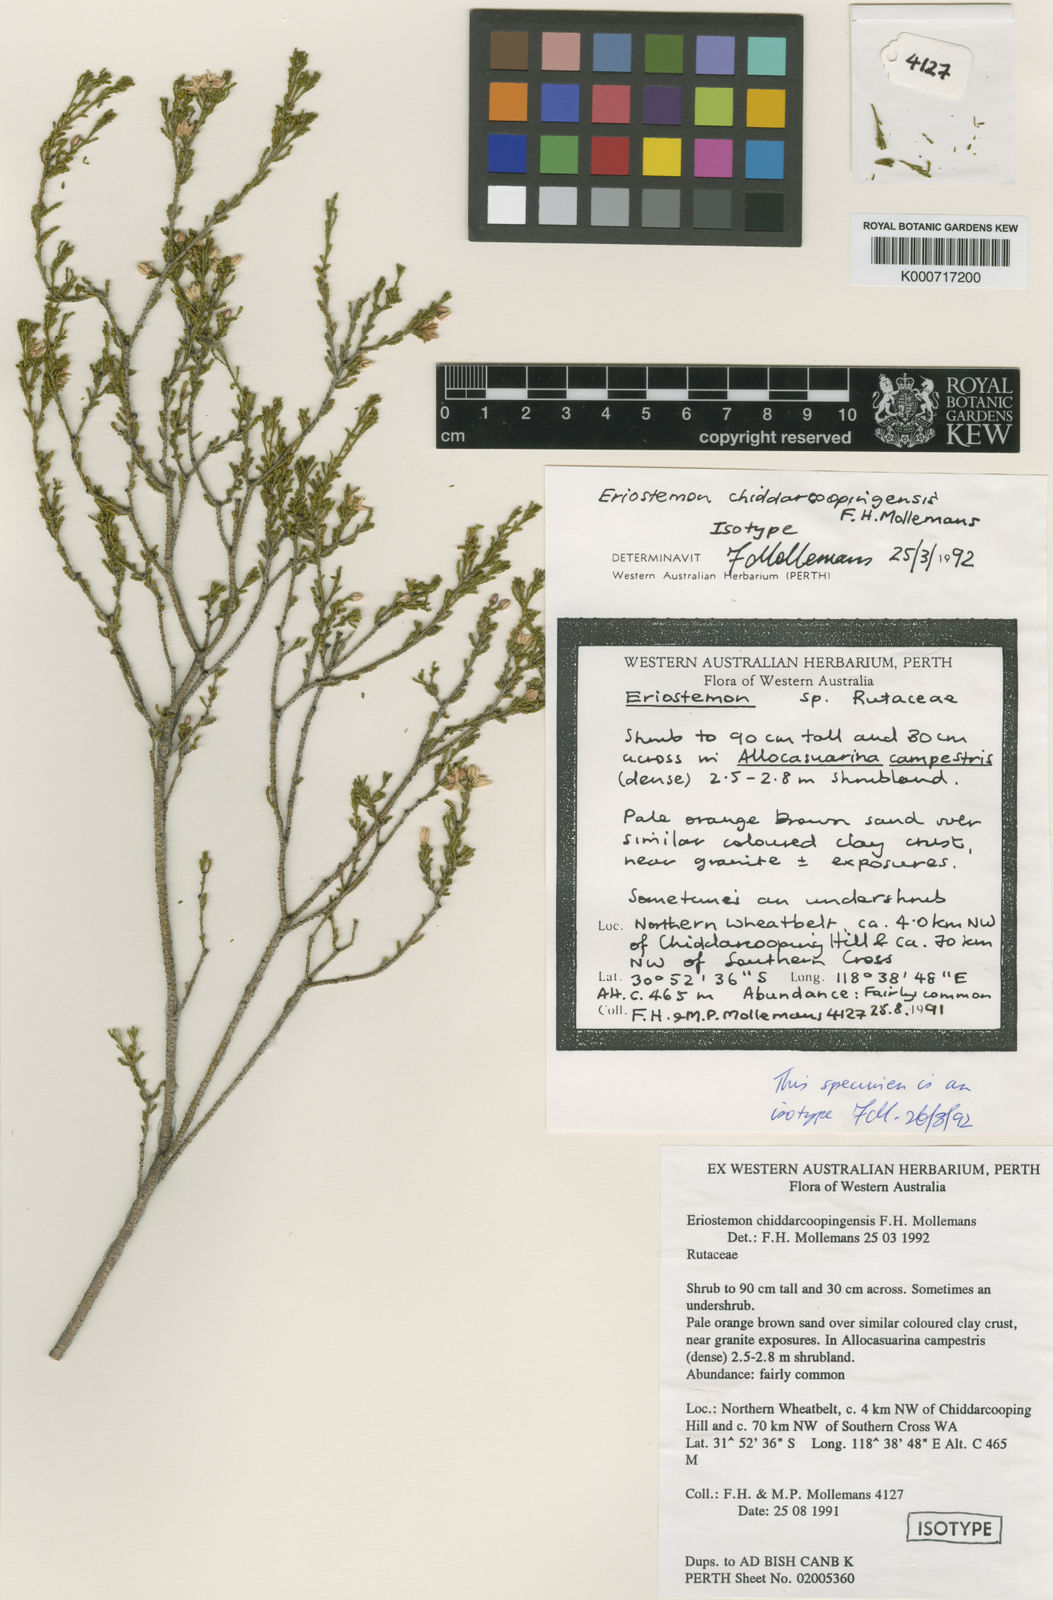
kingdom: Plantae
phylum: Tracheophyta
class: Magnoliopsida
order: Sapindales
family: Rutaceae
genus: Eriostemon
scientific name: Eriostemon
